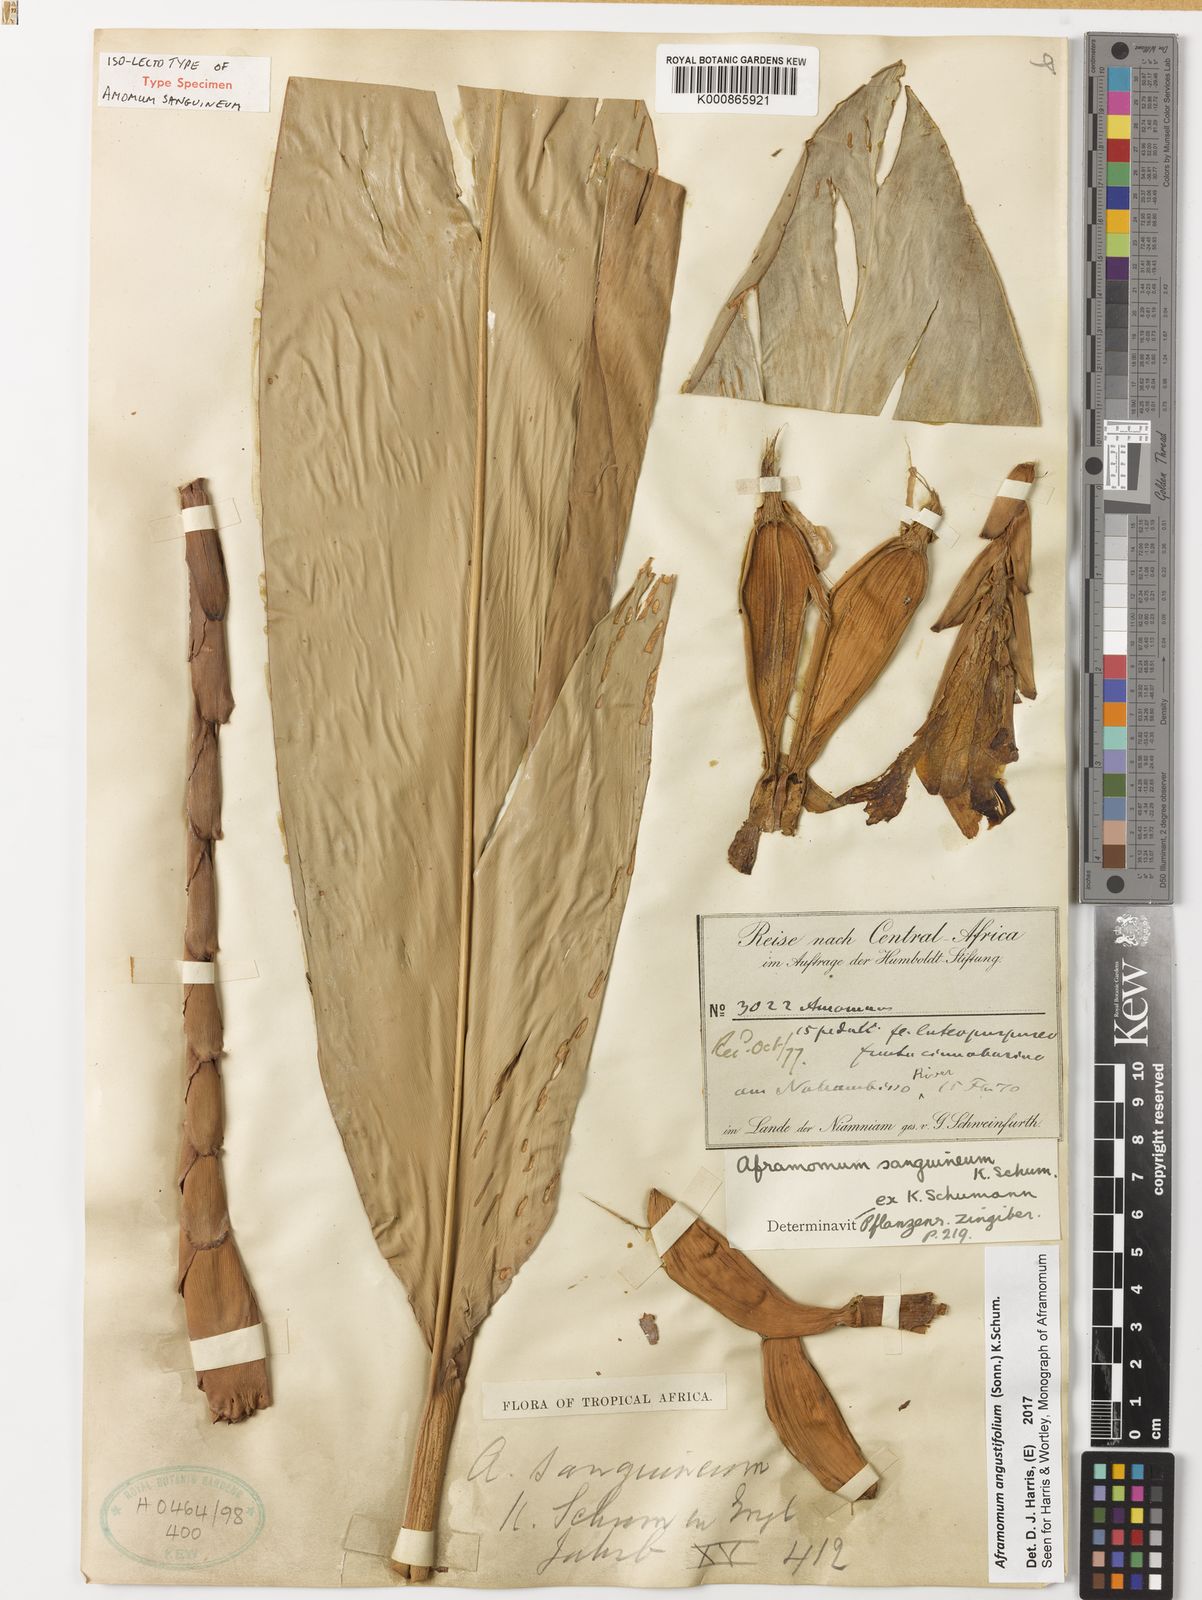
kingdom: Plantae
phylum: Tracheophyta
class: Liliopsida
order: Zingiberales
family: Zingiberaceae
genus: Aframomum
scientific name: Aframomum angustifolium
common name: Guinea grains
